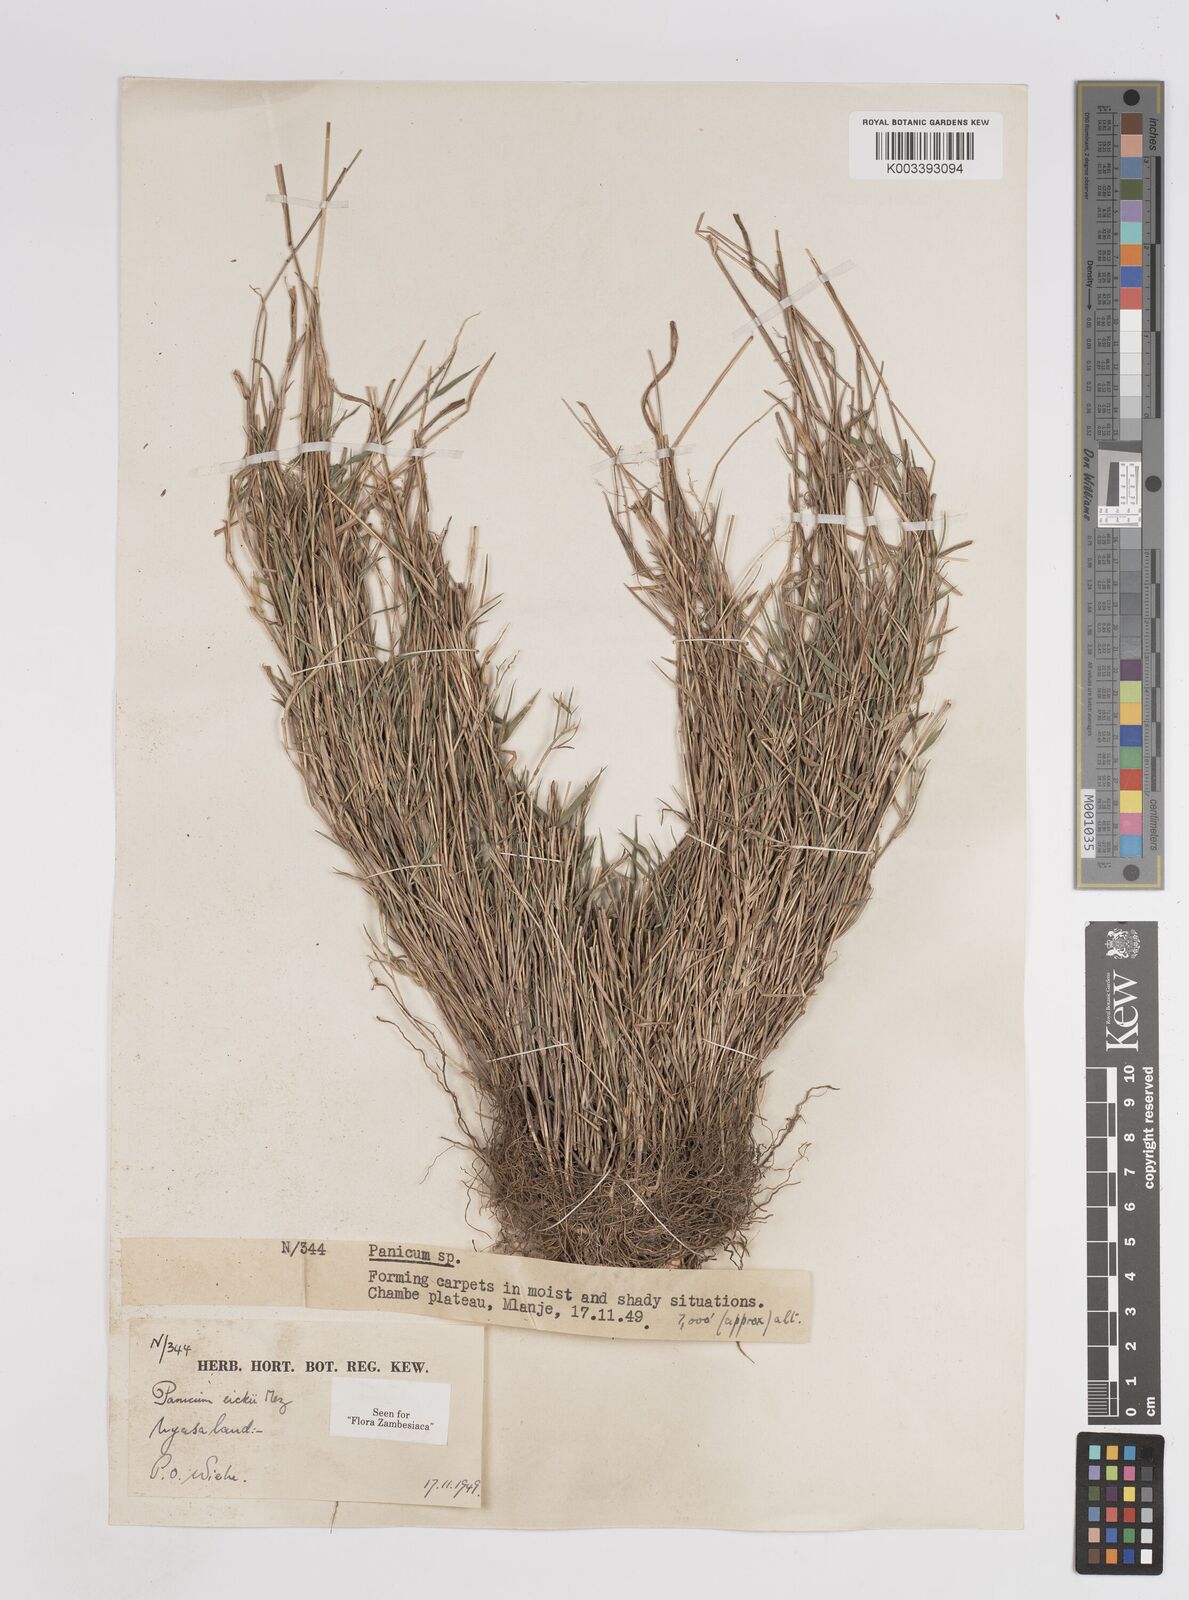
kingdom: Plantae
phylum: Tracheophyta
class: Liliopsida
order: Poales
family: Poaceae
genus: Panicum
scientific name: Panicum eickii
